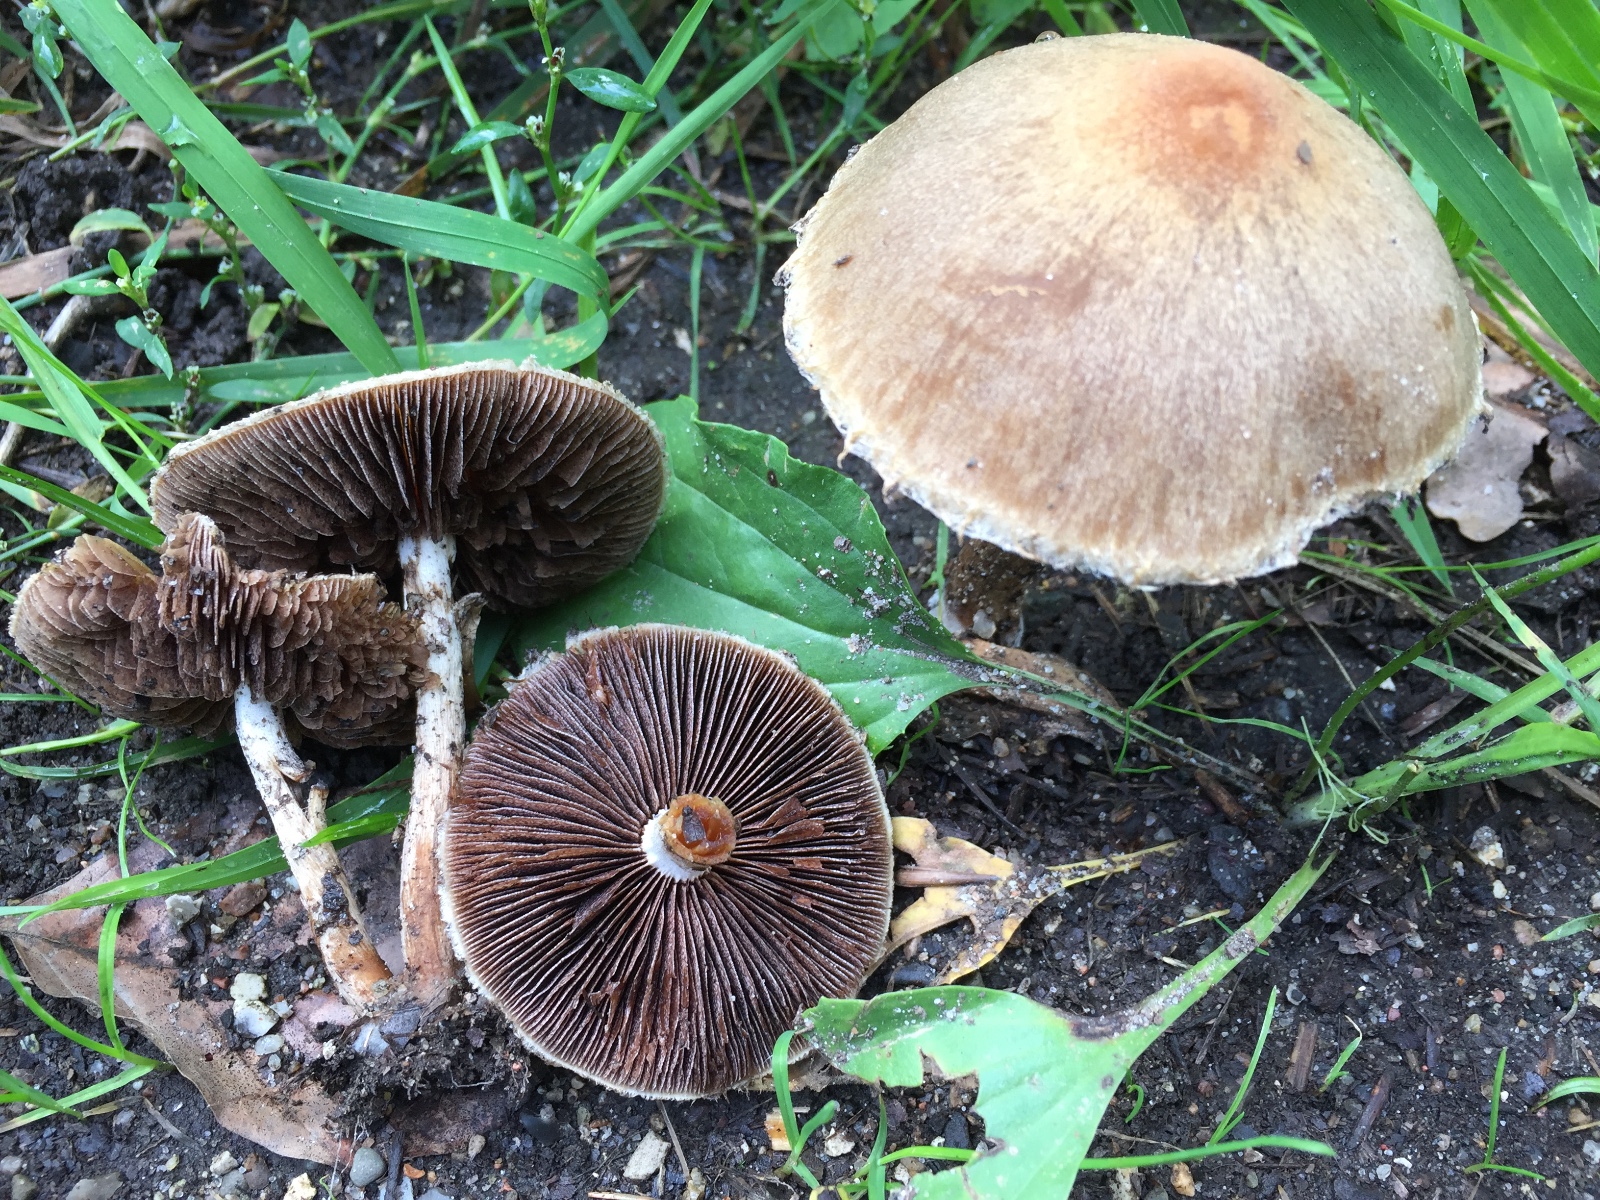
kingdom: Fungi
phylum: Basidiomycota
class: Agaricomycetes
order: Agaricales
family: Psathyrellaceae
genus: Lacrymaria
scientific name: Lacrymaria lacrymabunda
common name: grædende mørkhat
